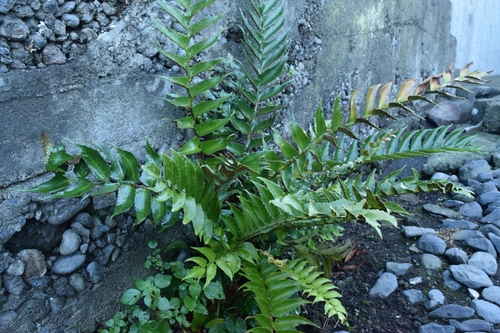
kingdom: Plantae
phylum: Tracheophyta
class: Polypodiopsida
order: Polypodiales
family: Dryopteridaceae
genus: Cyrtomium
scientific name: Cyrtomium falcatum
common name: House holly-fern
